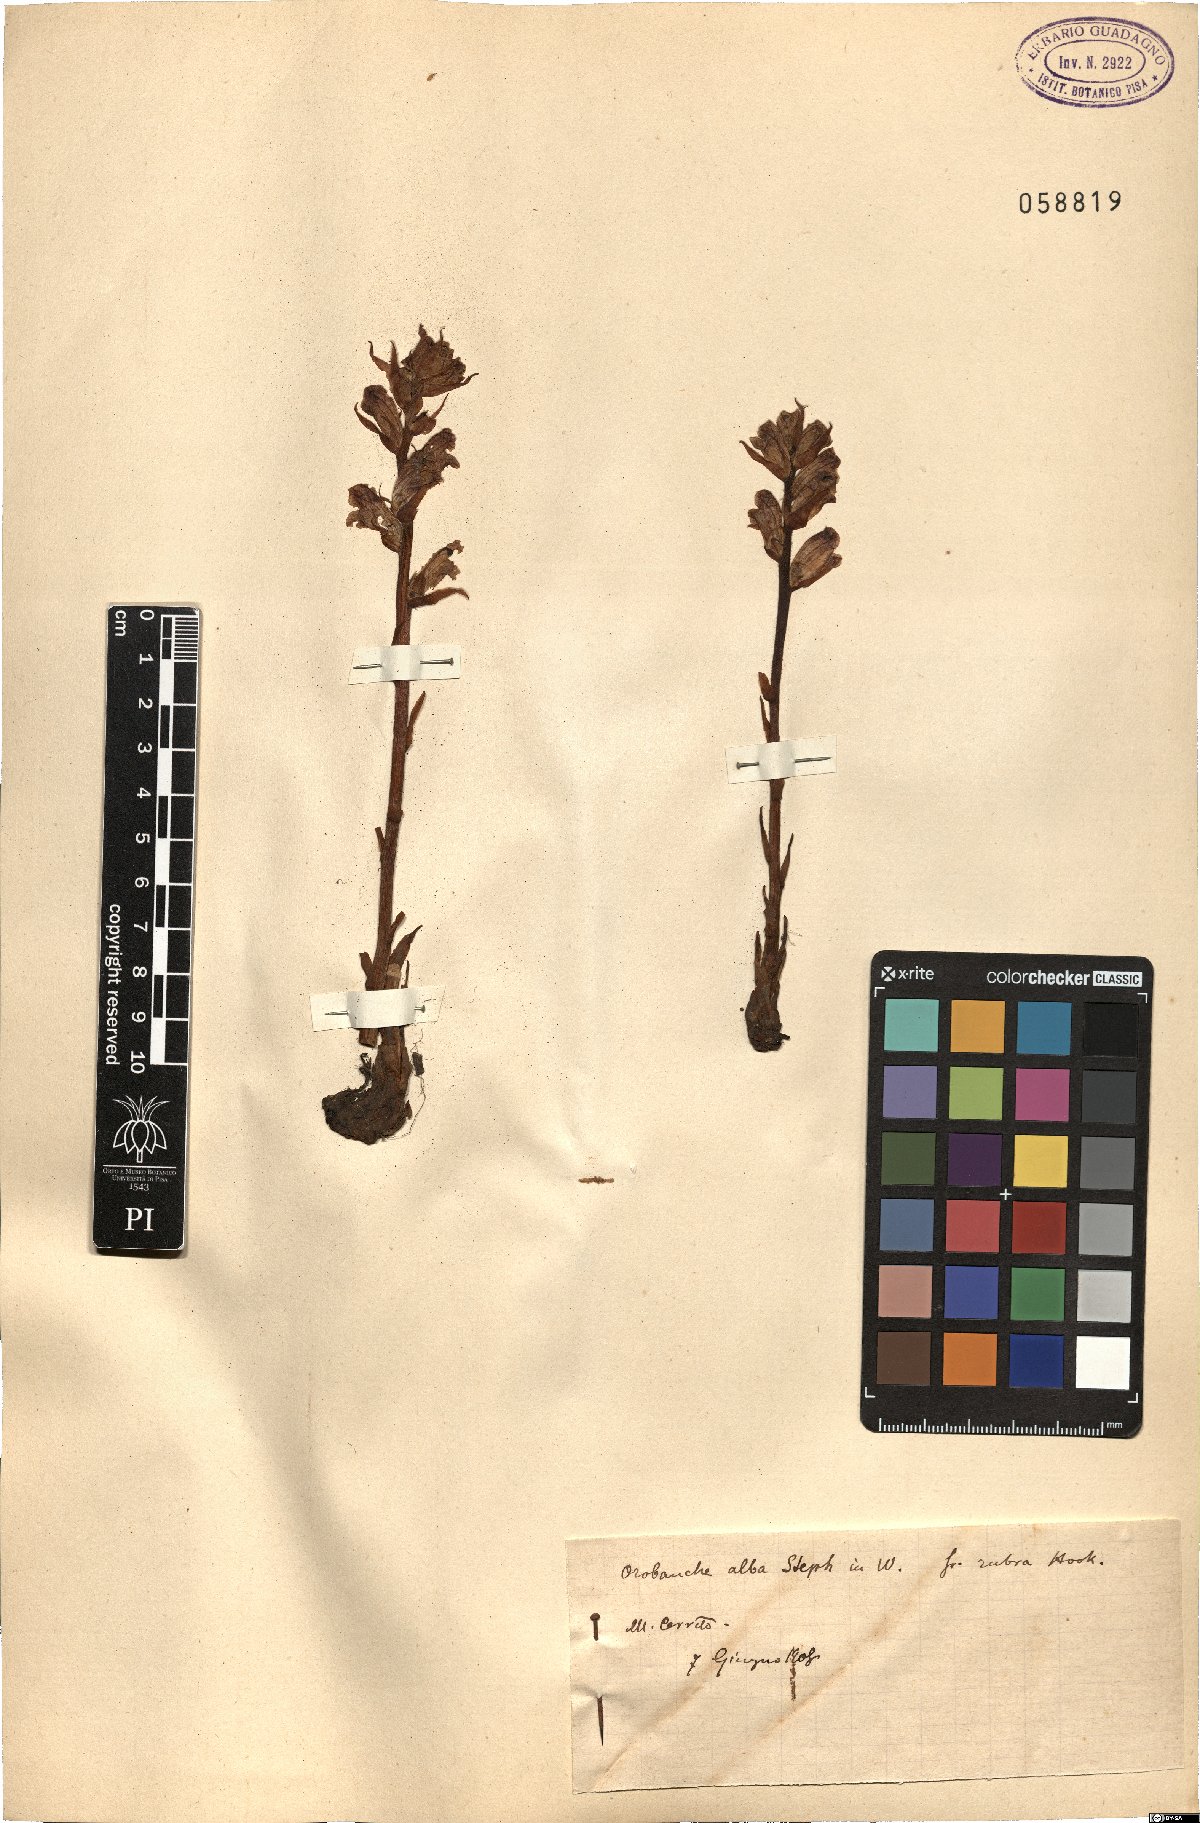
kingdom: Plantae
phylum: Tracheophyta
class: Magnoliopsida
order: Lamiales
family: Orobanchaceae
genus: Orobanche
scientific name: Orobanche alba
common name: Thyme broomrape
